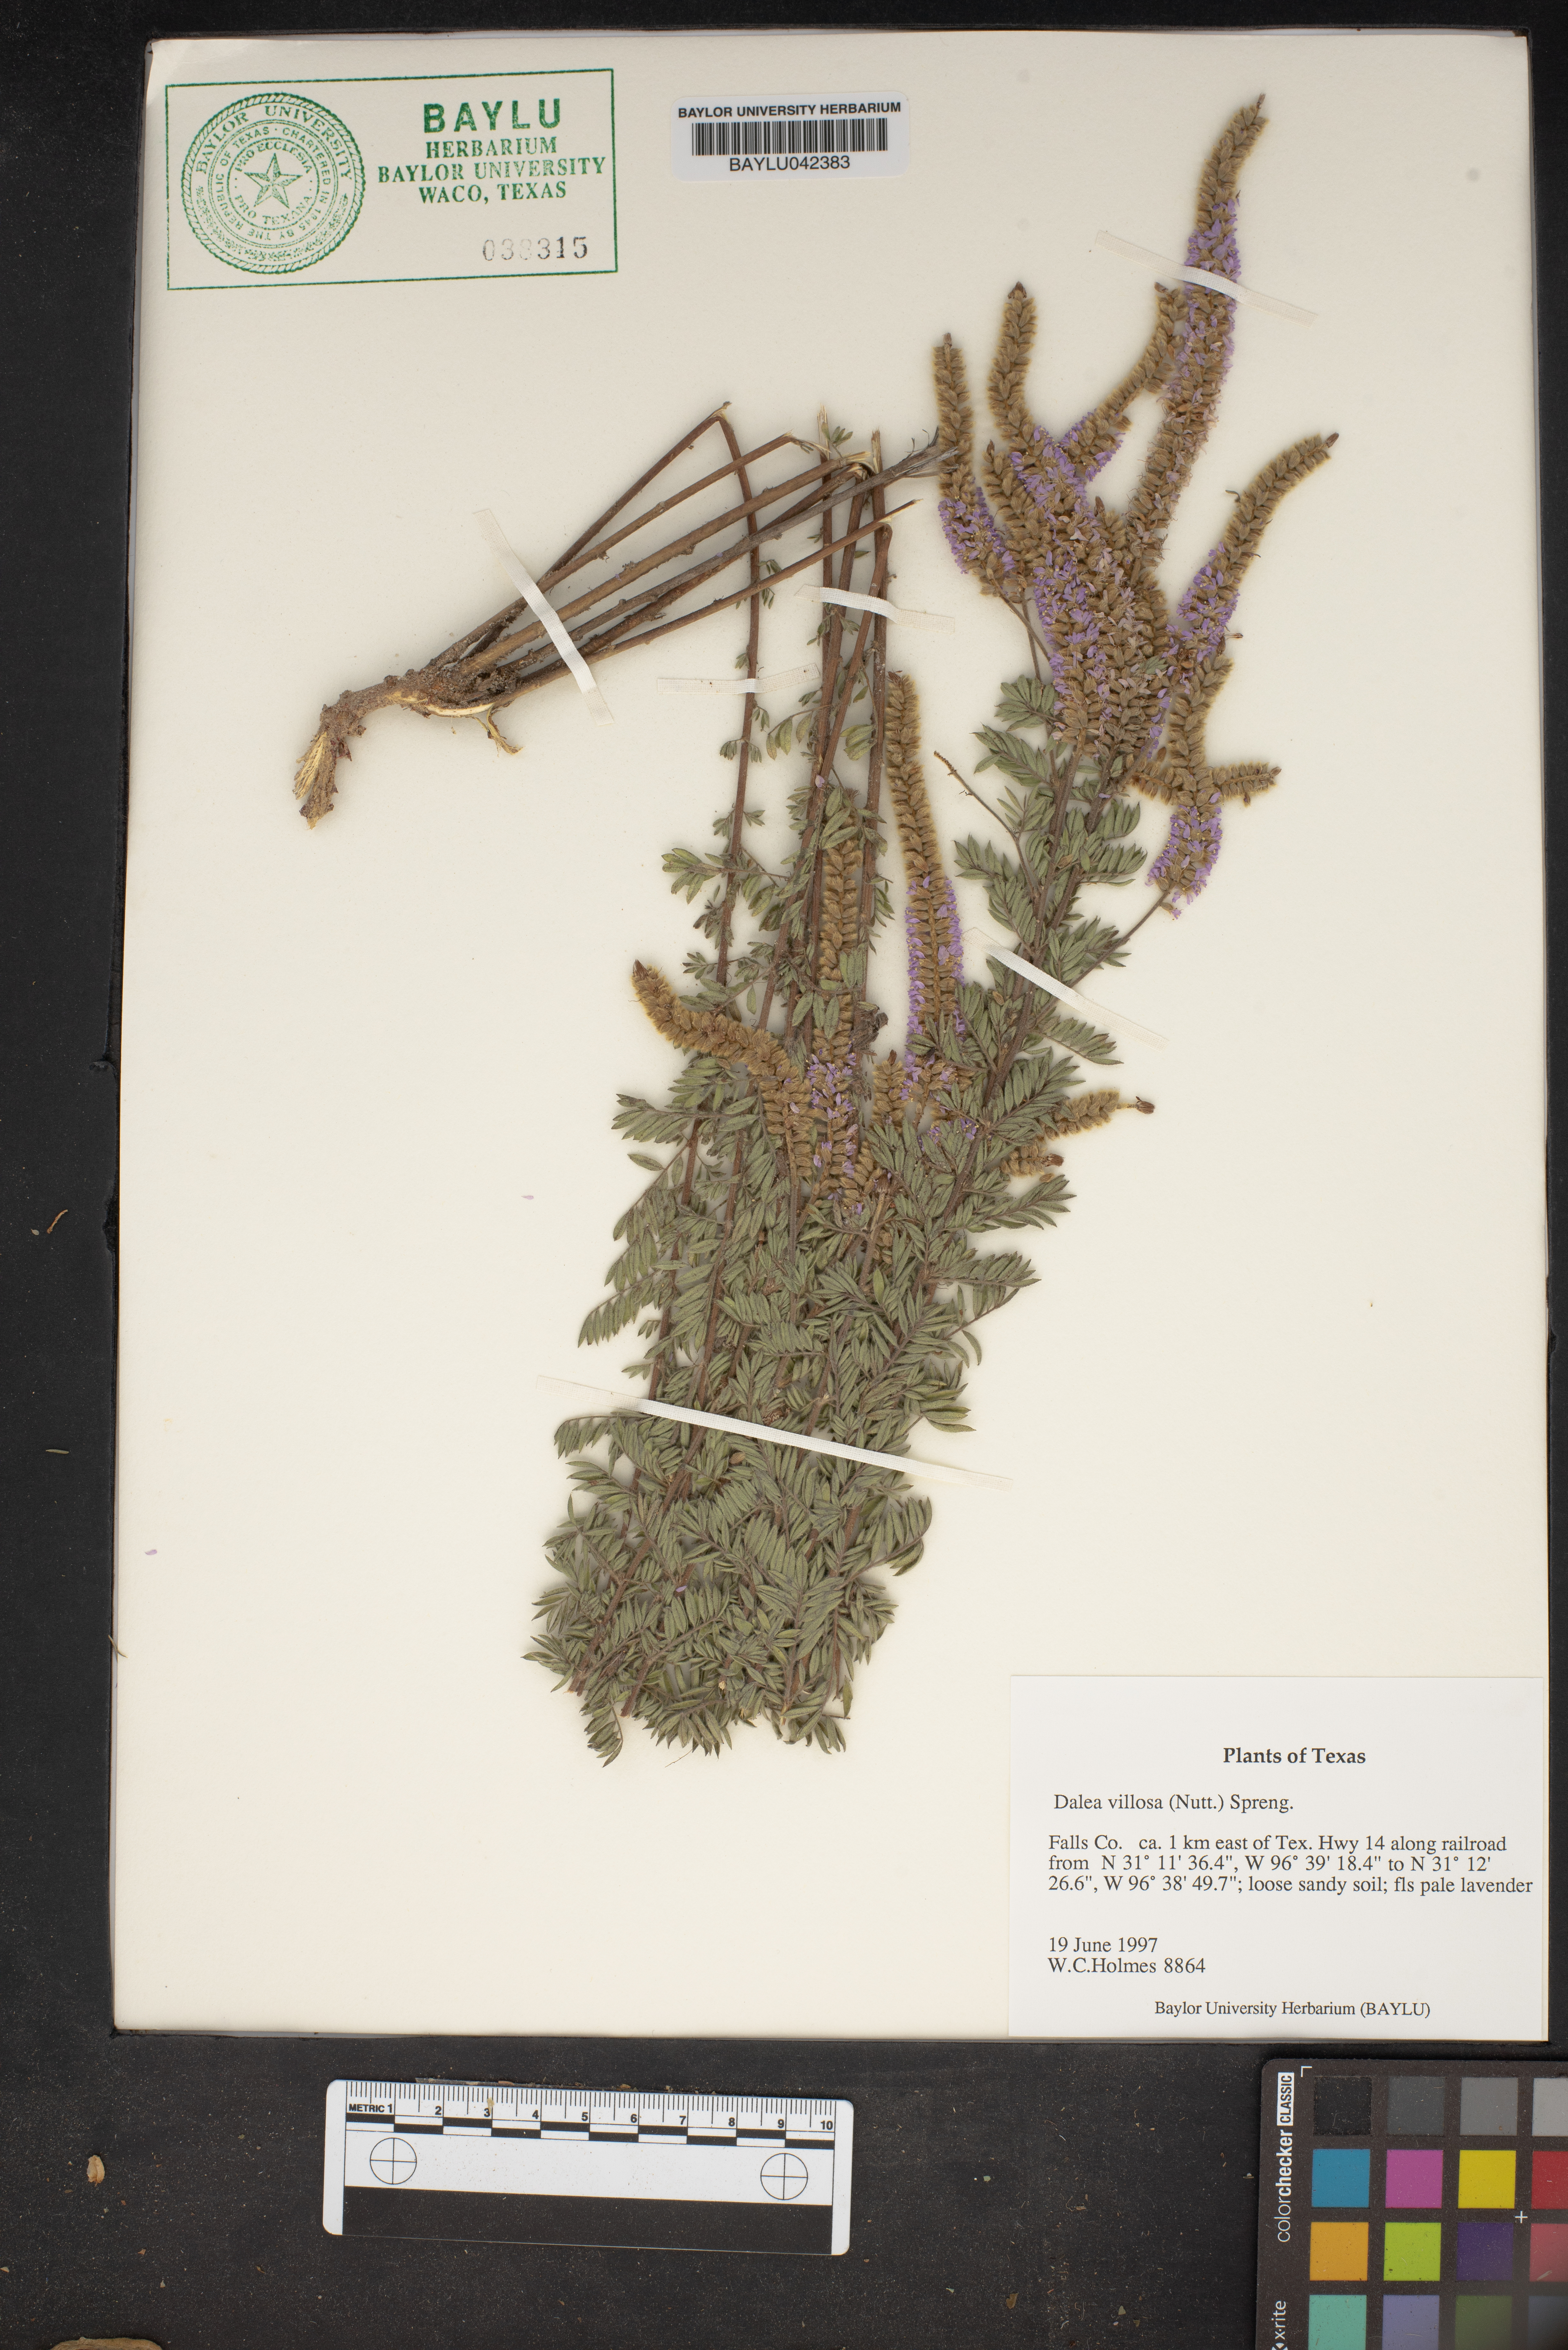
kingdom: Plantae
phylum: Tracheophyta
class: Magnoliopsida
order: Fabales
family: Fabaceae
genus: Dalea
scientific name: Dalea villosa
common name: Silky prairie-clover
